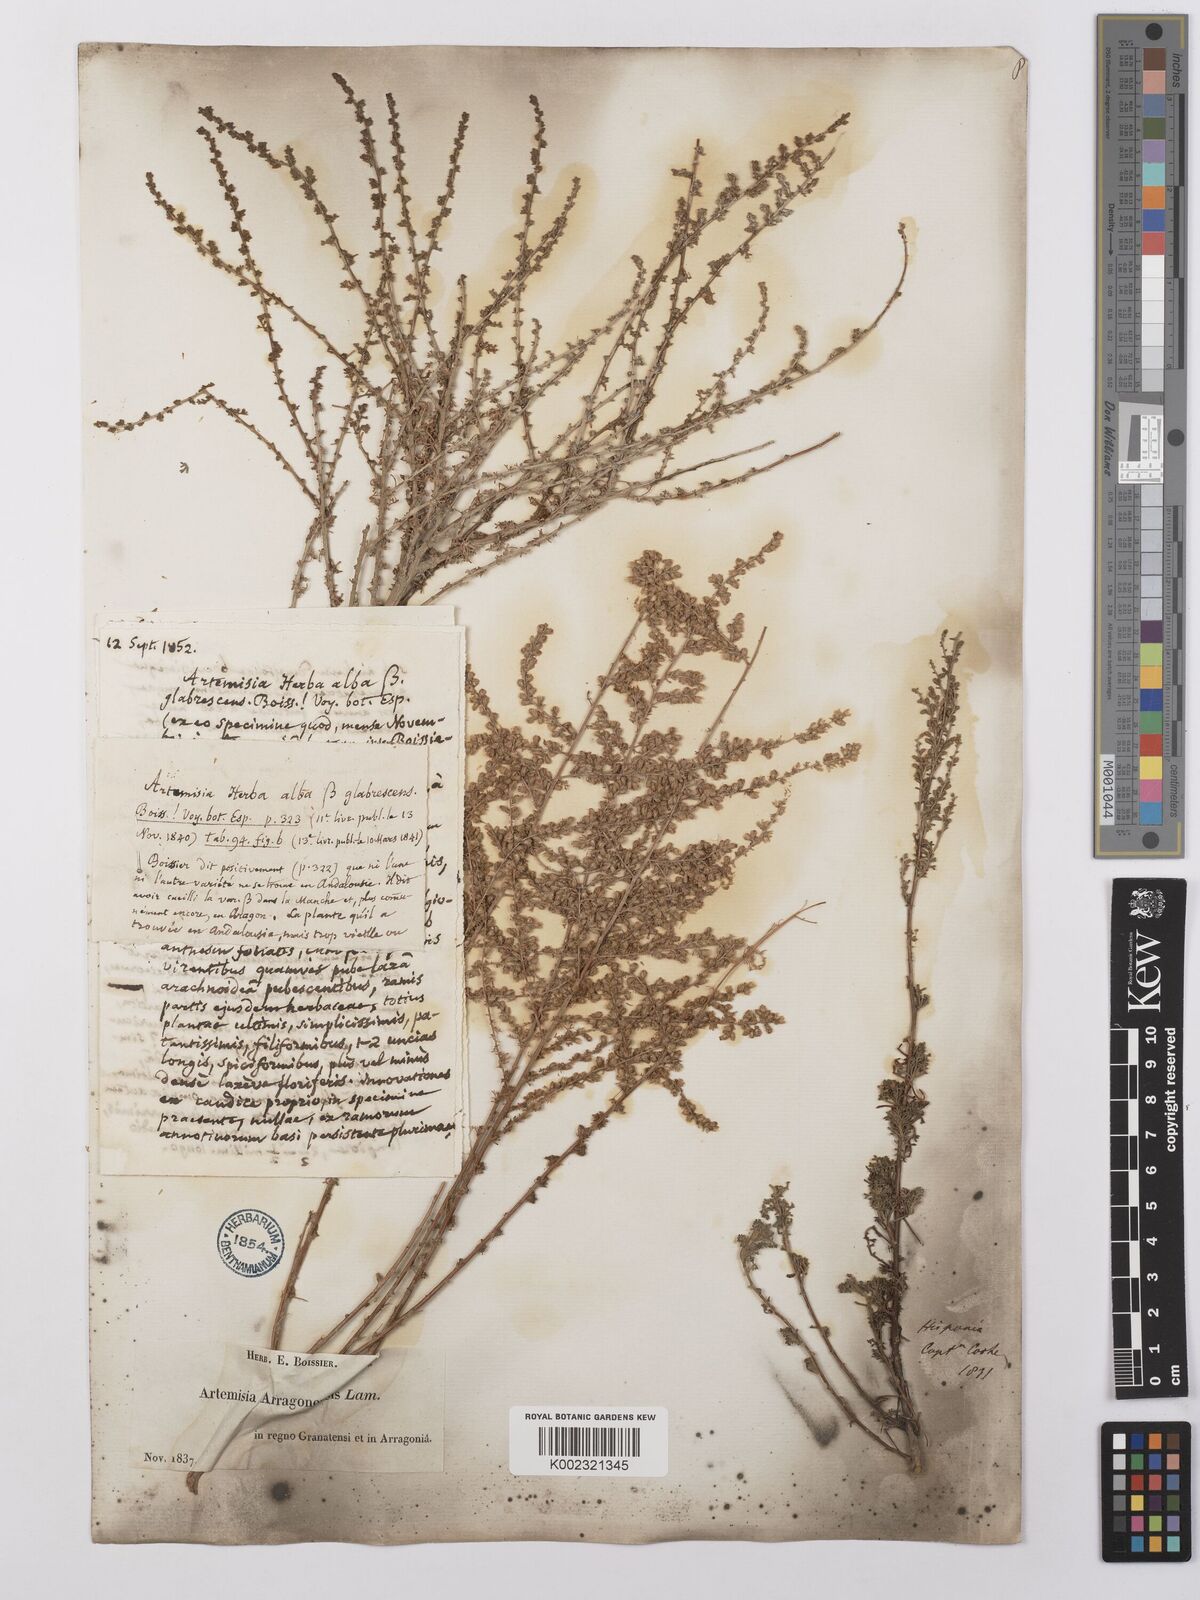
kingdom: Plantae
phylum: Tracheophyta
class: Magnoliopsida
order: Asterales
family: Asteraceae
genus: Artemisia
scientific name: Artemisia herba-alba
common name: White wormwood
